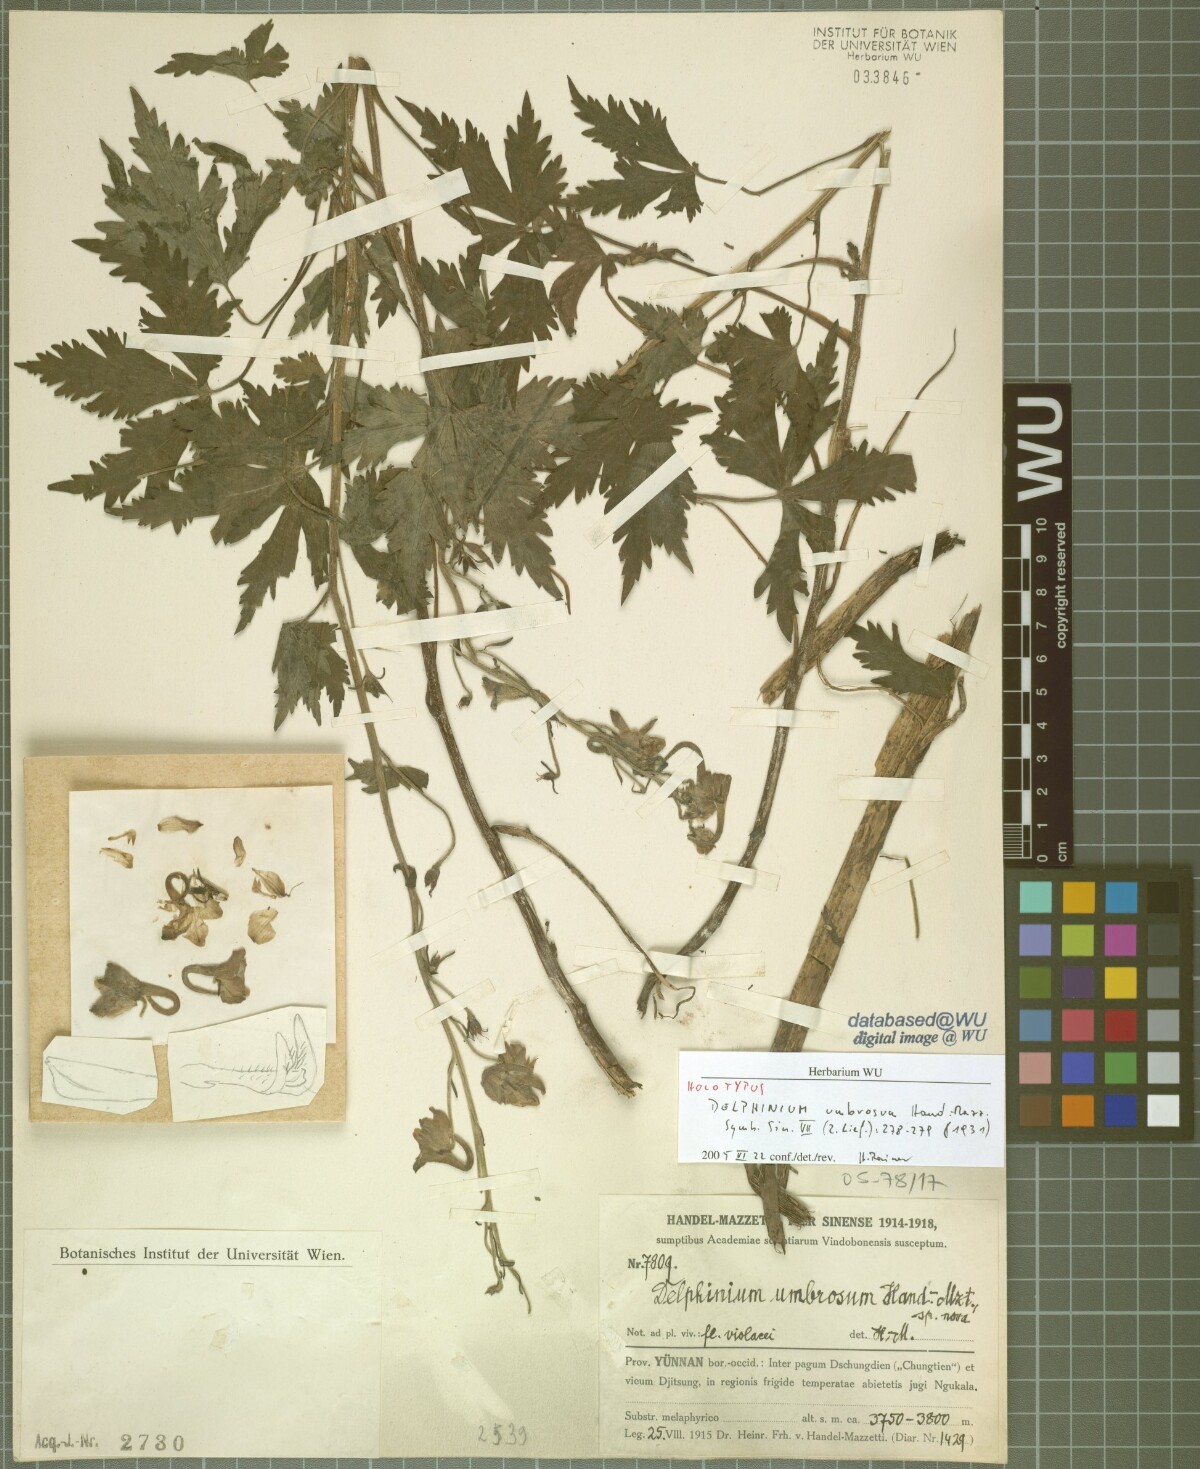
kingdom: Plantae
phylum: Tracheophyta
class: Magnoliopsida
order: Ranunculales
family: Ranunculaceae
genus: Delphinium
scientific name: Delphinium umbrosum
